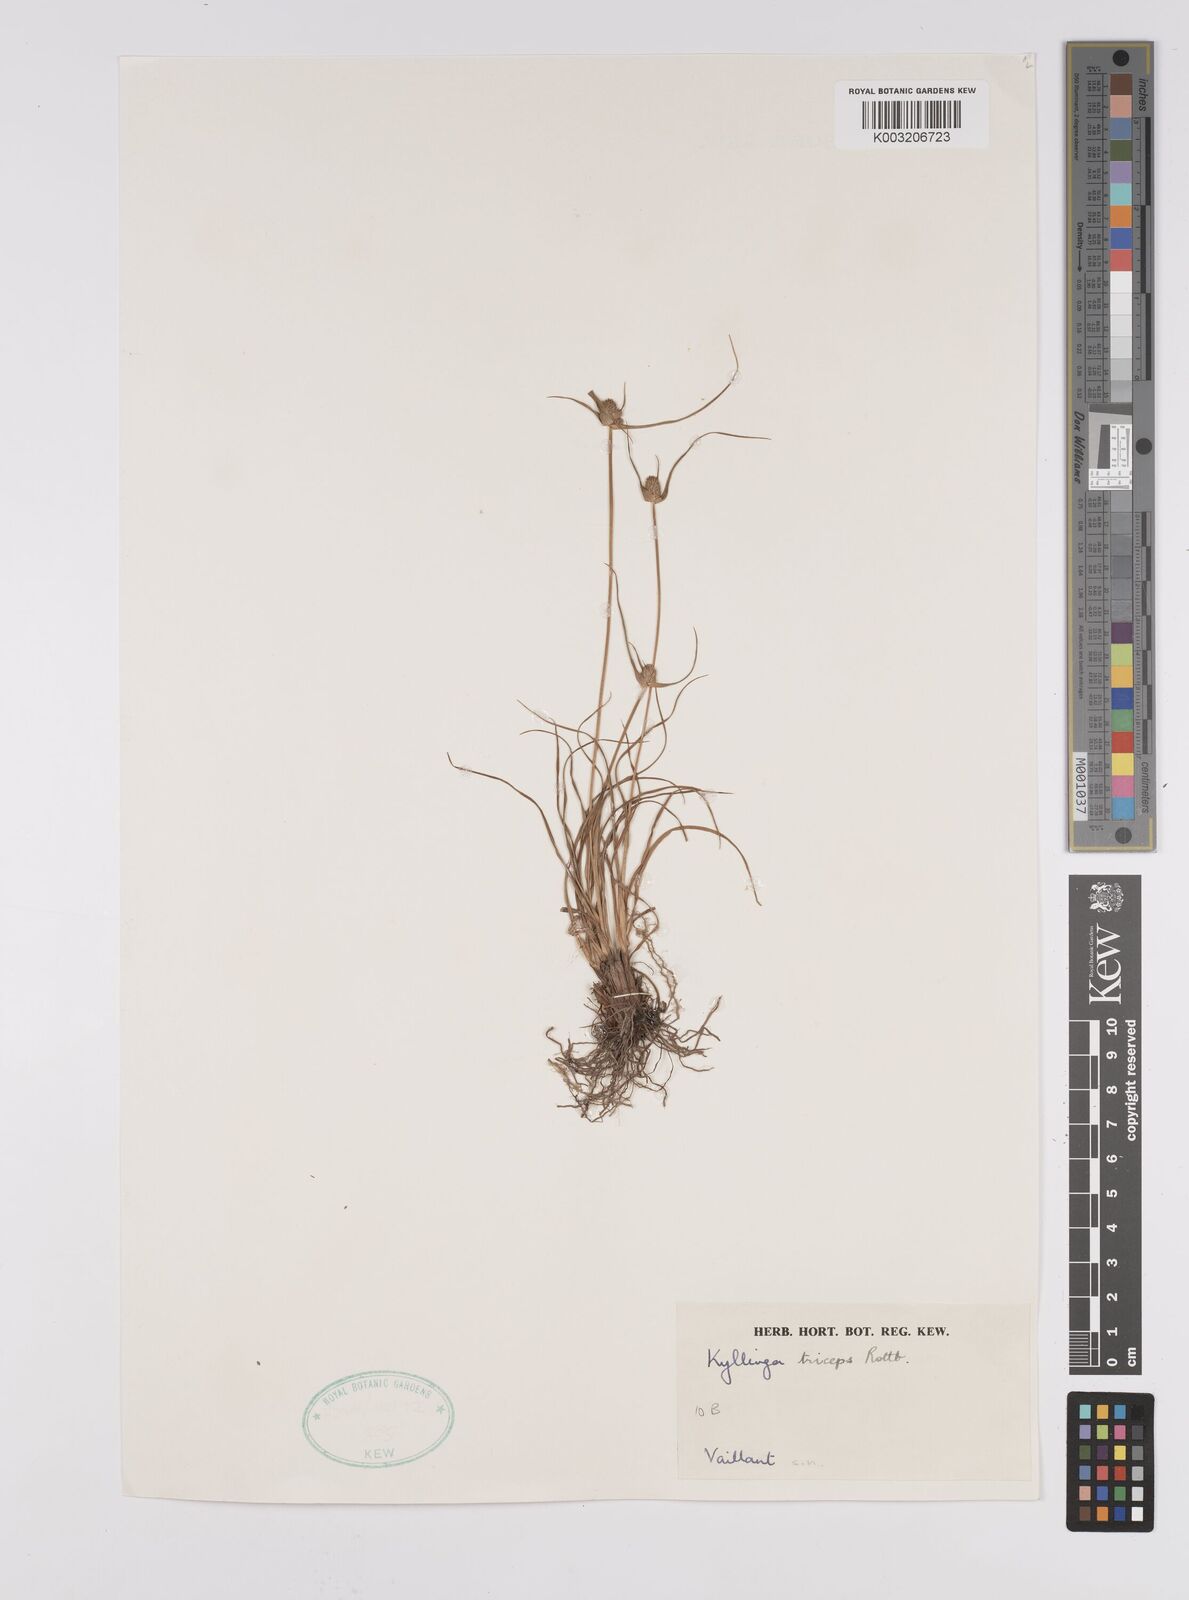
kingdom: Plantae
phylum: Tracheophyta
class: Liliopsida
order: Poales
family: Cyperaceae
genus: Cyperus
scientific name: Cyperus
